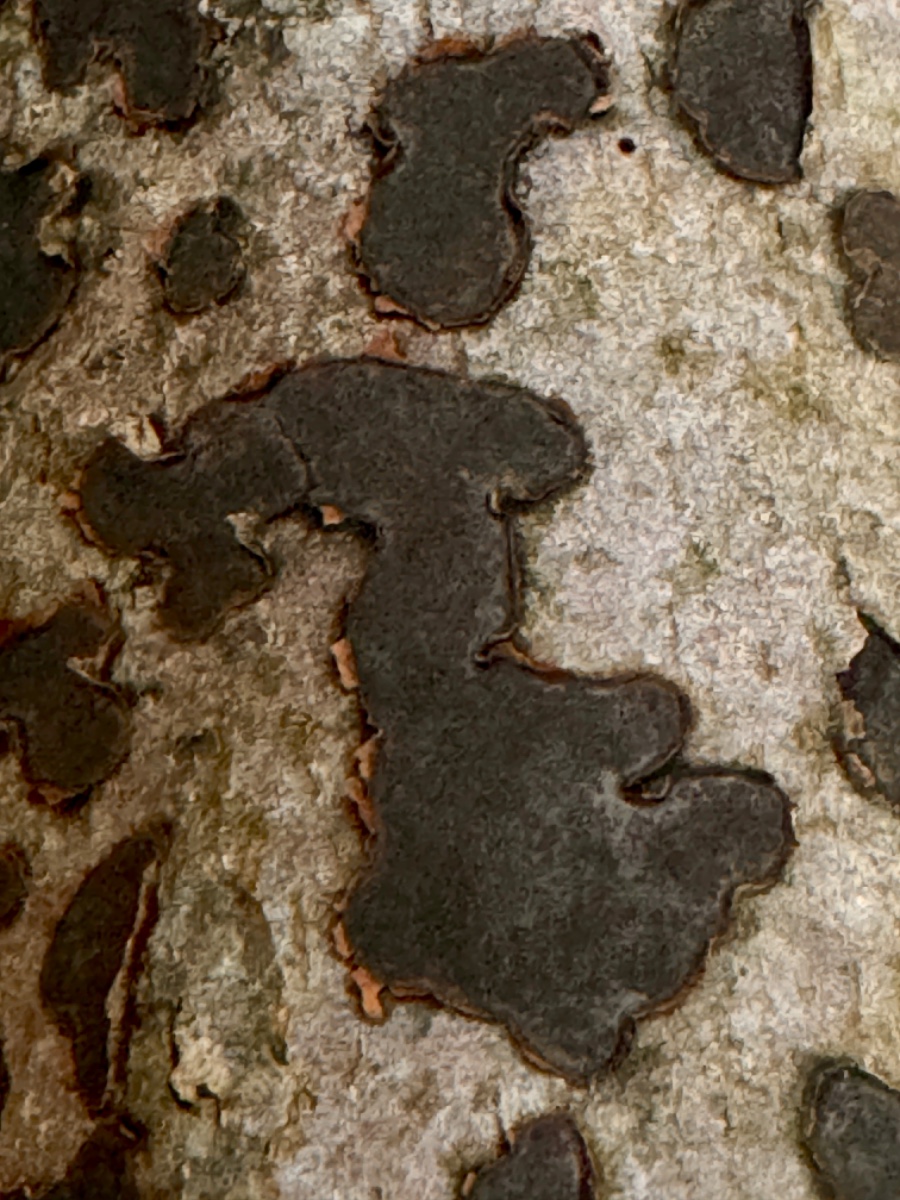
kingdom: Fungi
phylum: Ascomycota
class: Sordariomycetes
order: Xylariales
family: Graphostromataceae
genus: Biscogniauxia
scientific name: Biscogniauxia nummularia
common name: bøge-kulskive
